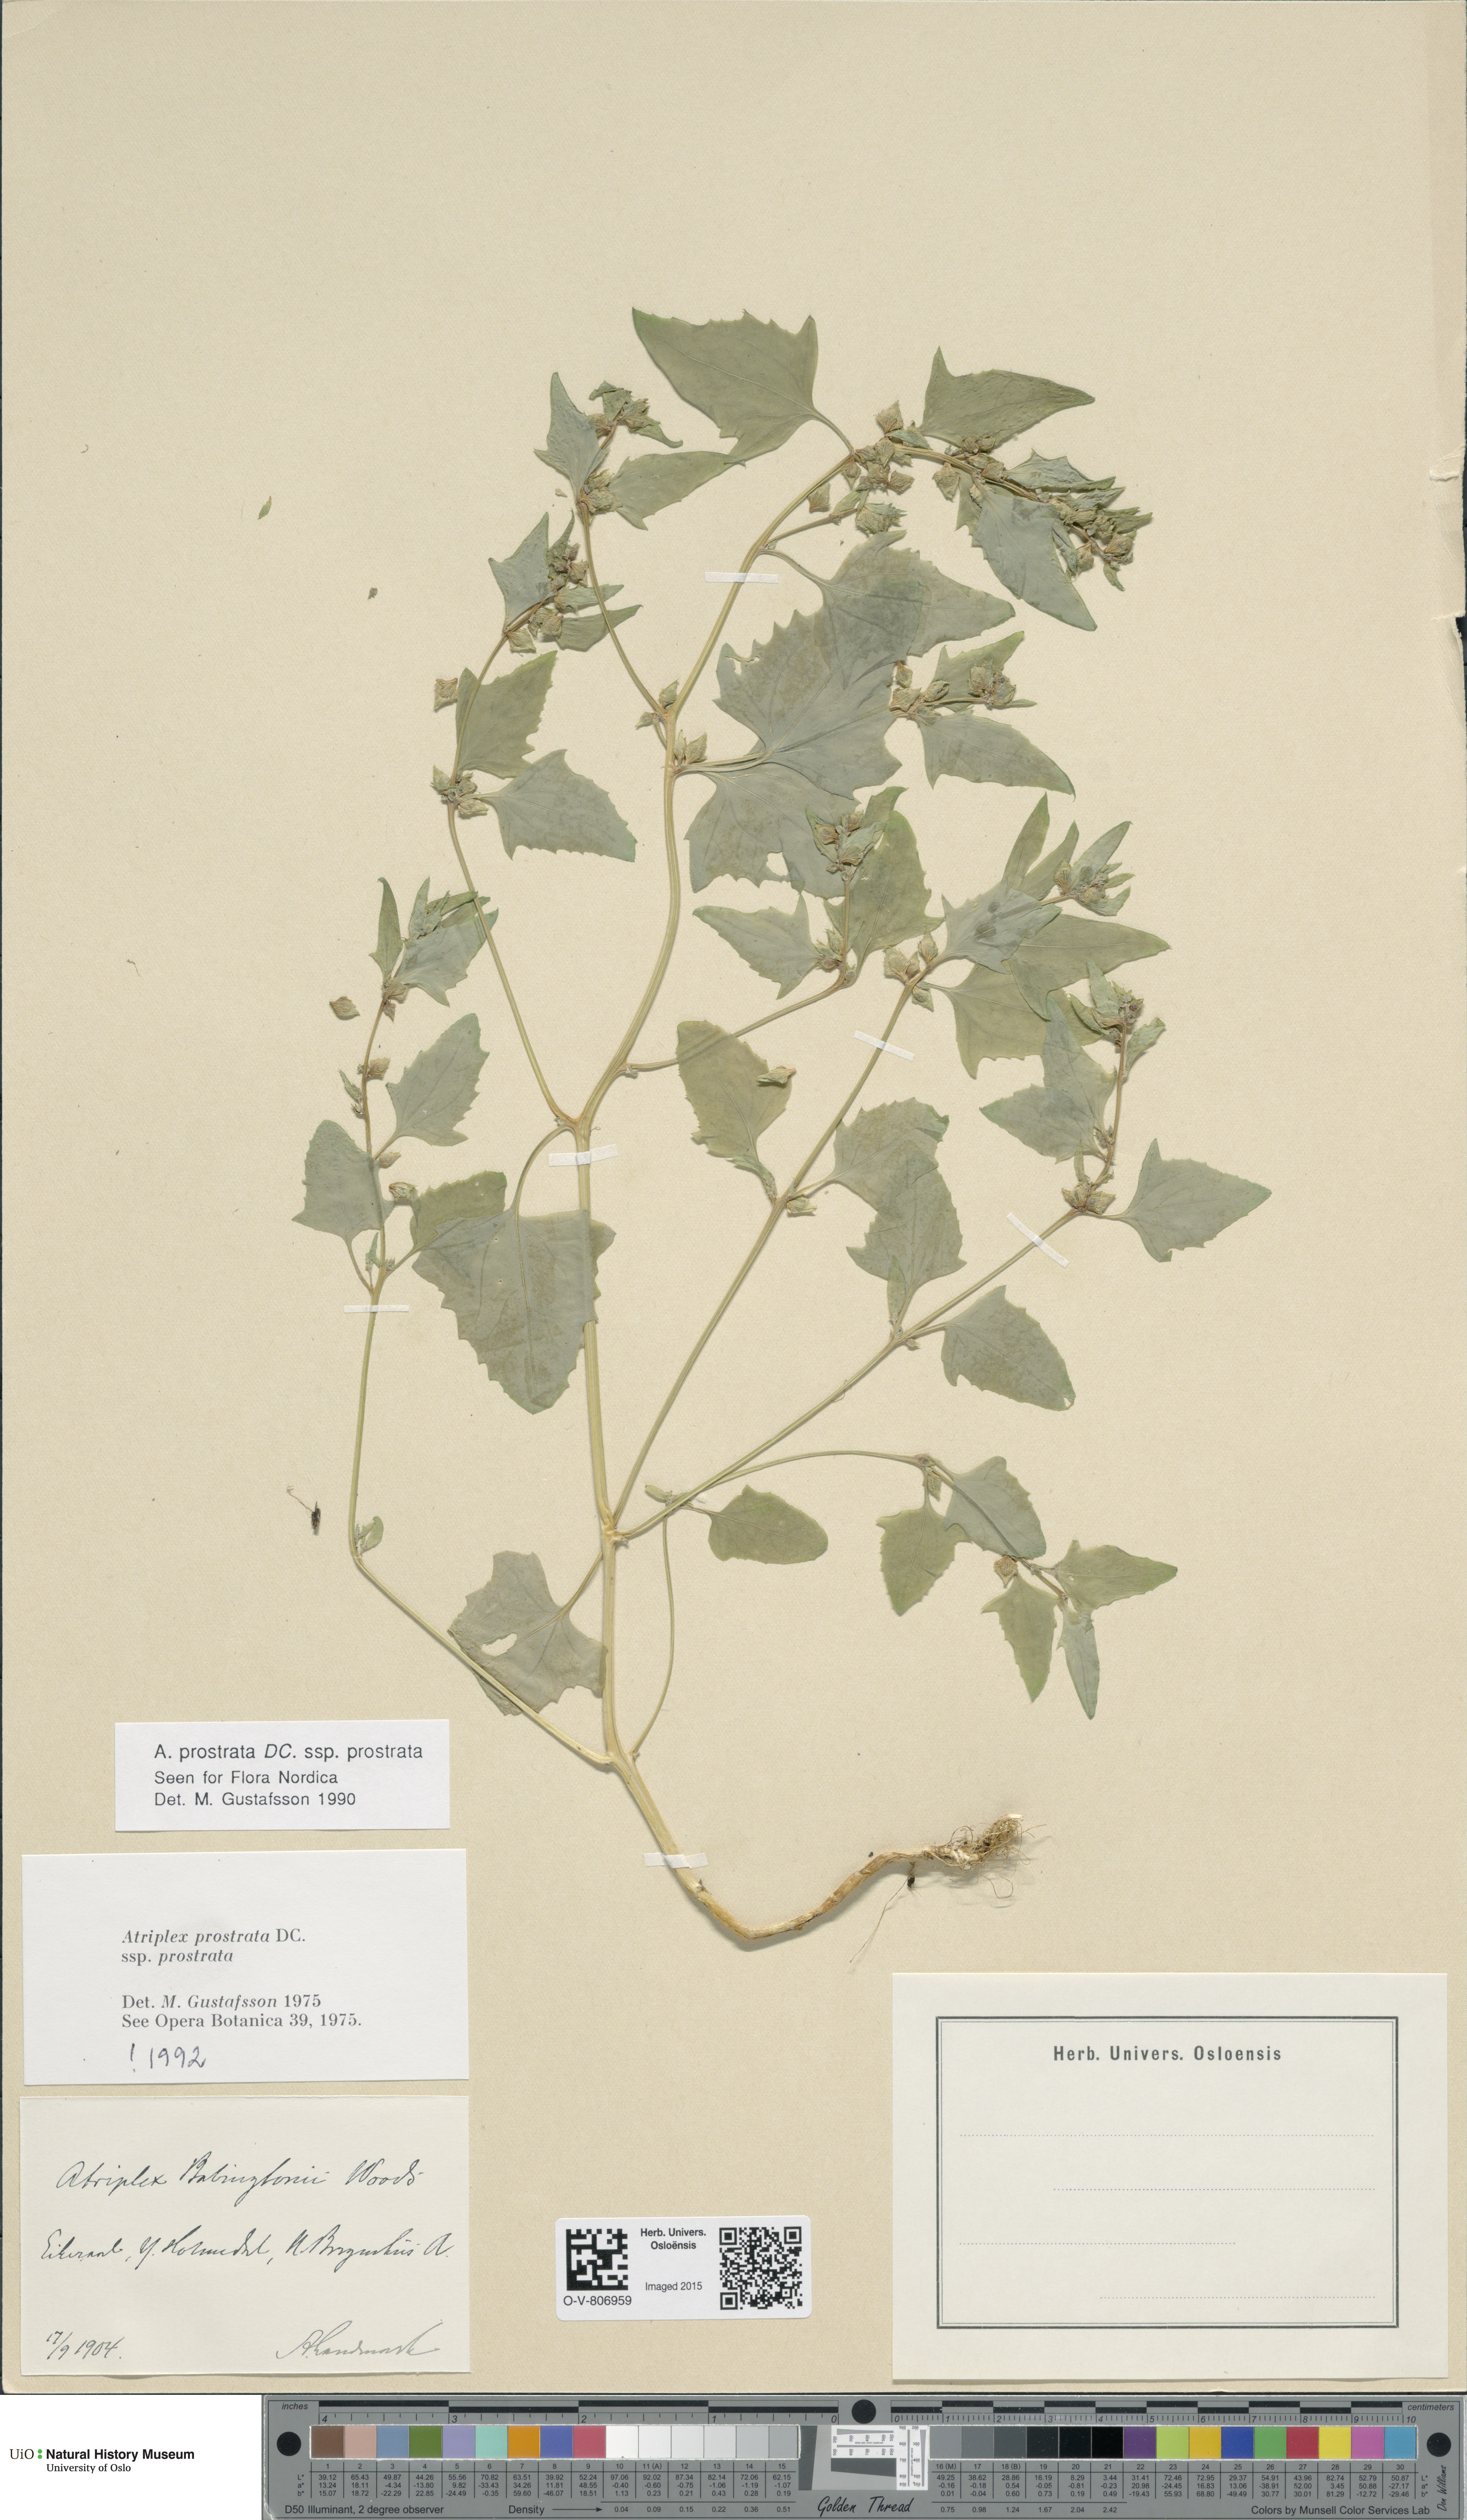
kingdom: Plantae
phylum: Tracheophyta
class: Magnoliopsida
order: Caryophyllales
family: Amaranthaceae
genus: Atriplex
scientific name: Atriplex prostrata
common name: Spear-leaved orache
